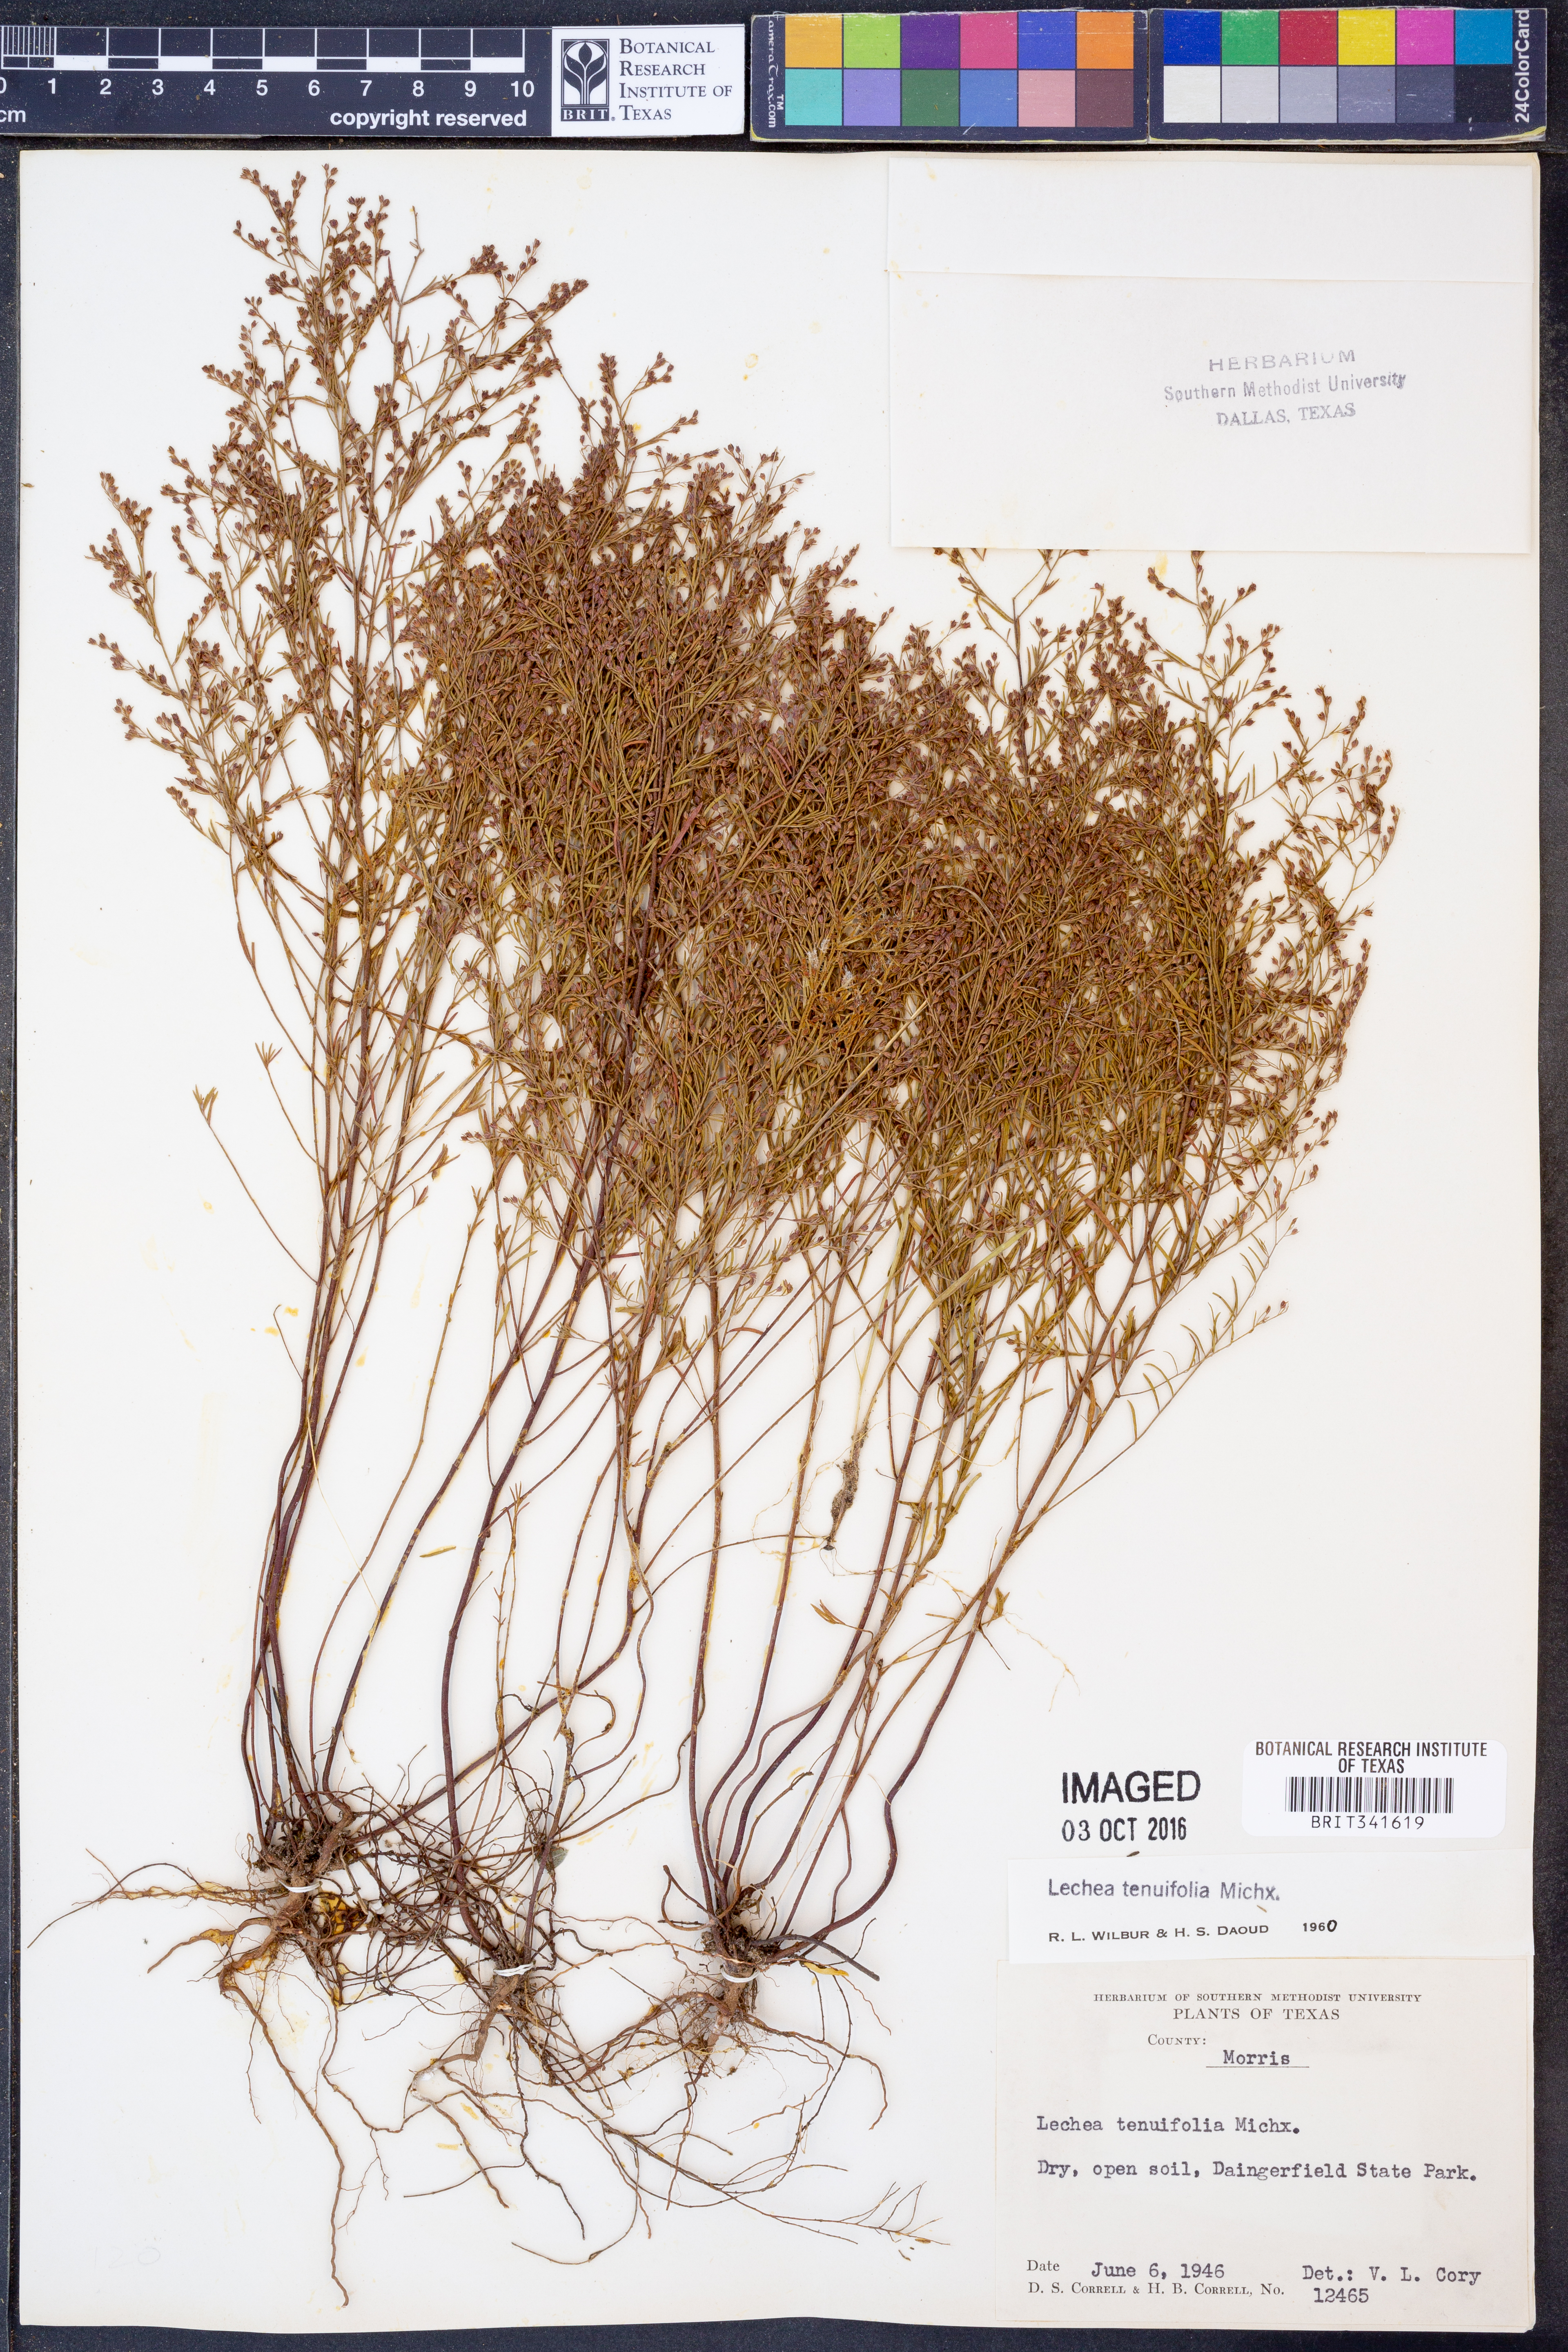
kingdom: Plantae
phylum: Tracheophyta
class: Magnoliopsida
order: Malvales
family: Cistaceae
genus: Lechea
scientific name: Lechea tenuifolia
